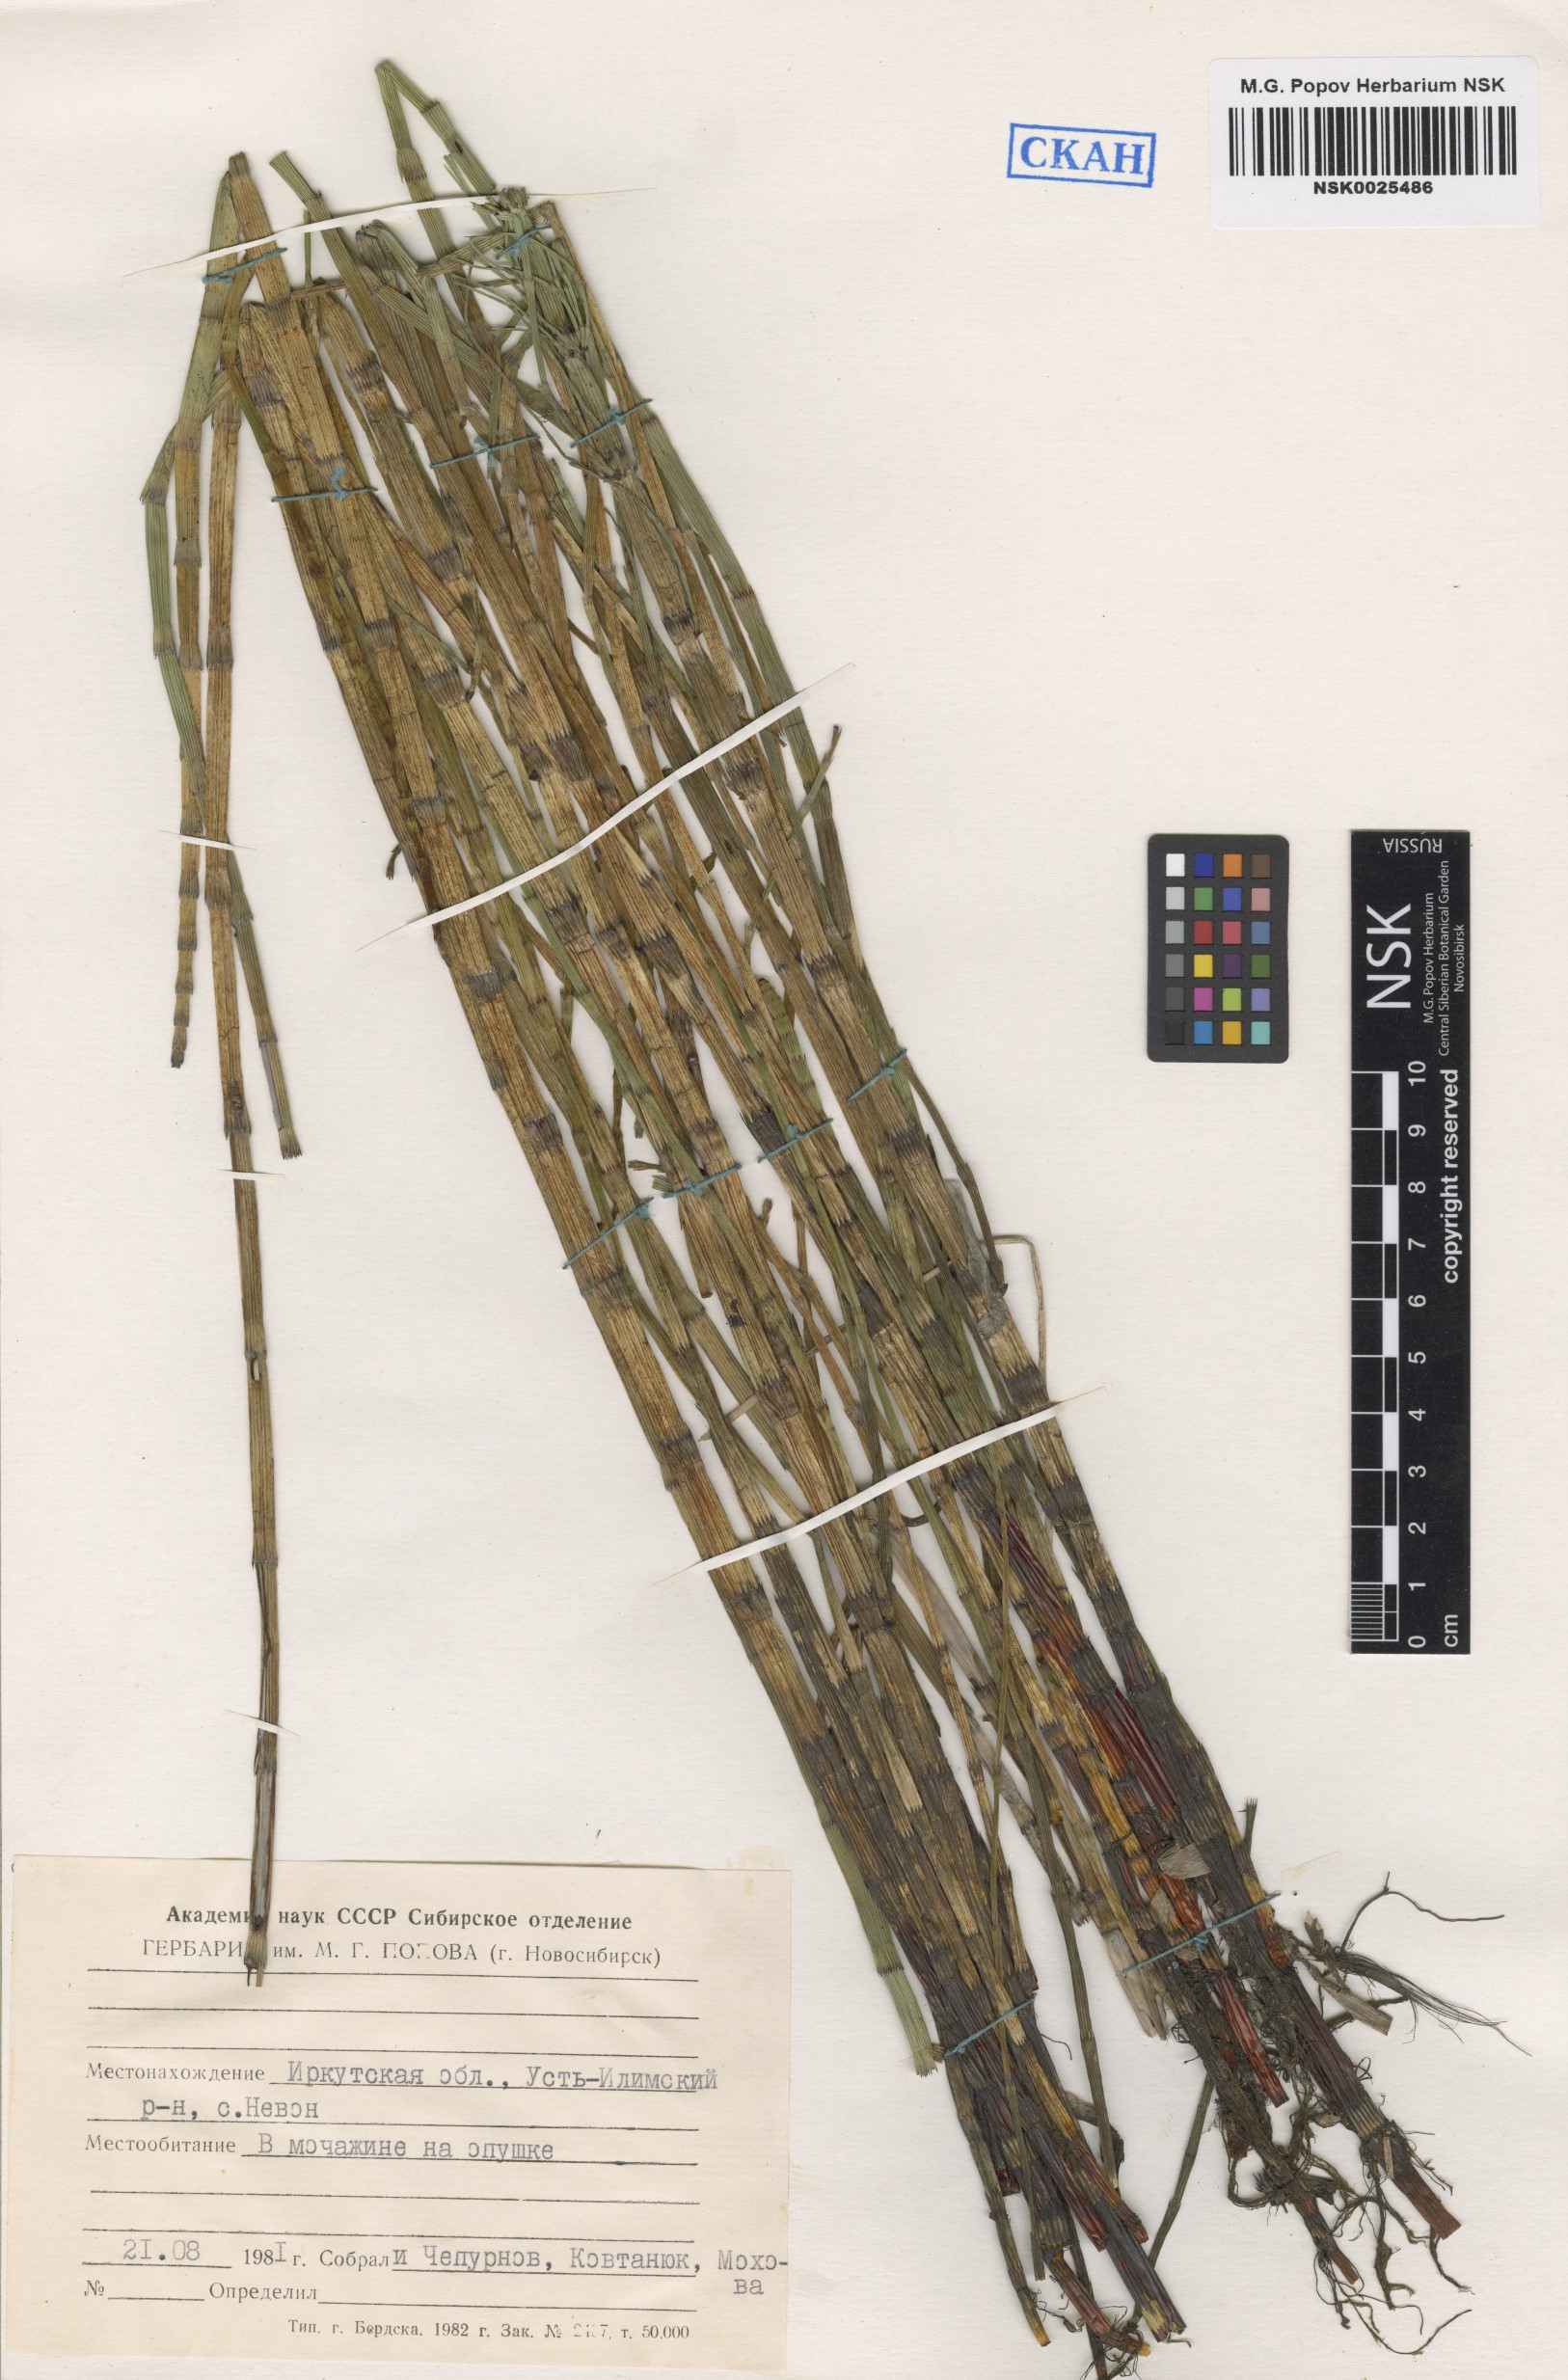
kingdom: Plantae
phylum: Tracheophyta
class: Polypodiopsida
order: Equisetales
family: Equisetaceae
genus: Equisetum
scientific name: Equisetum fluviatile
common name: Water horsetail
